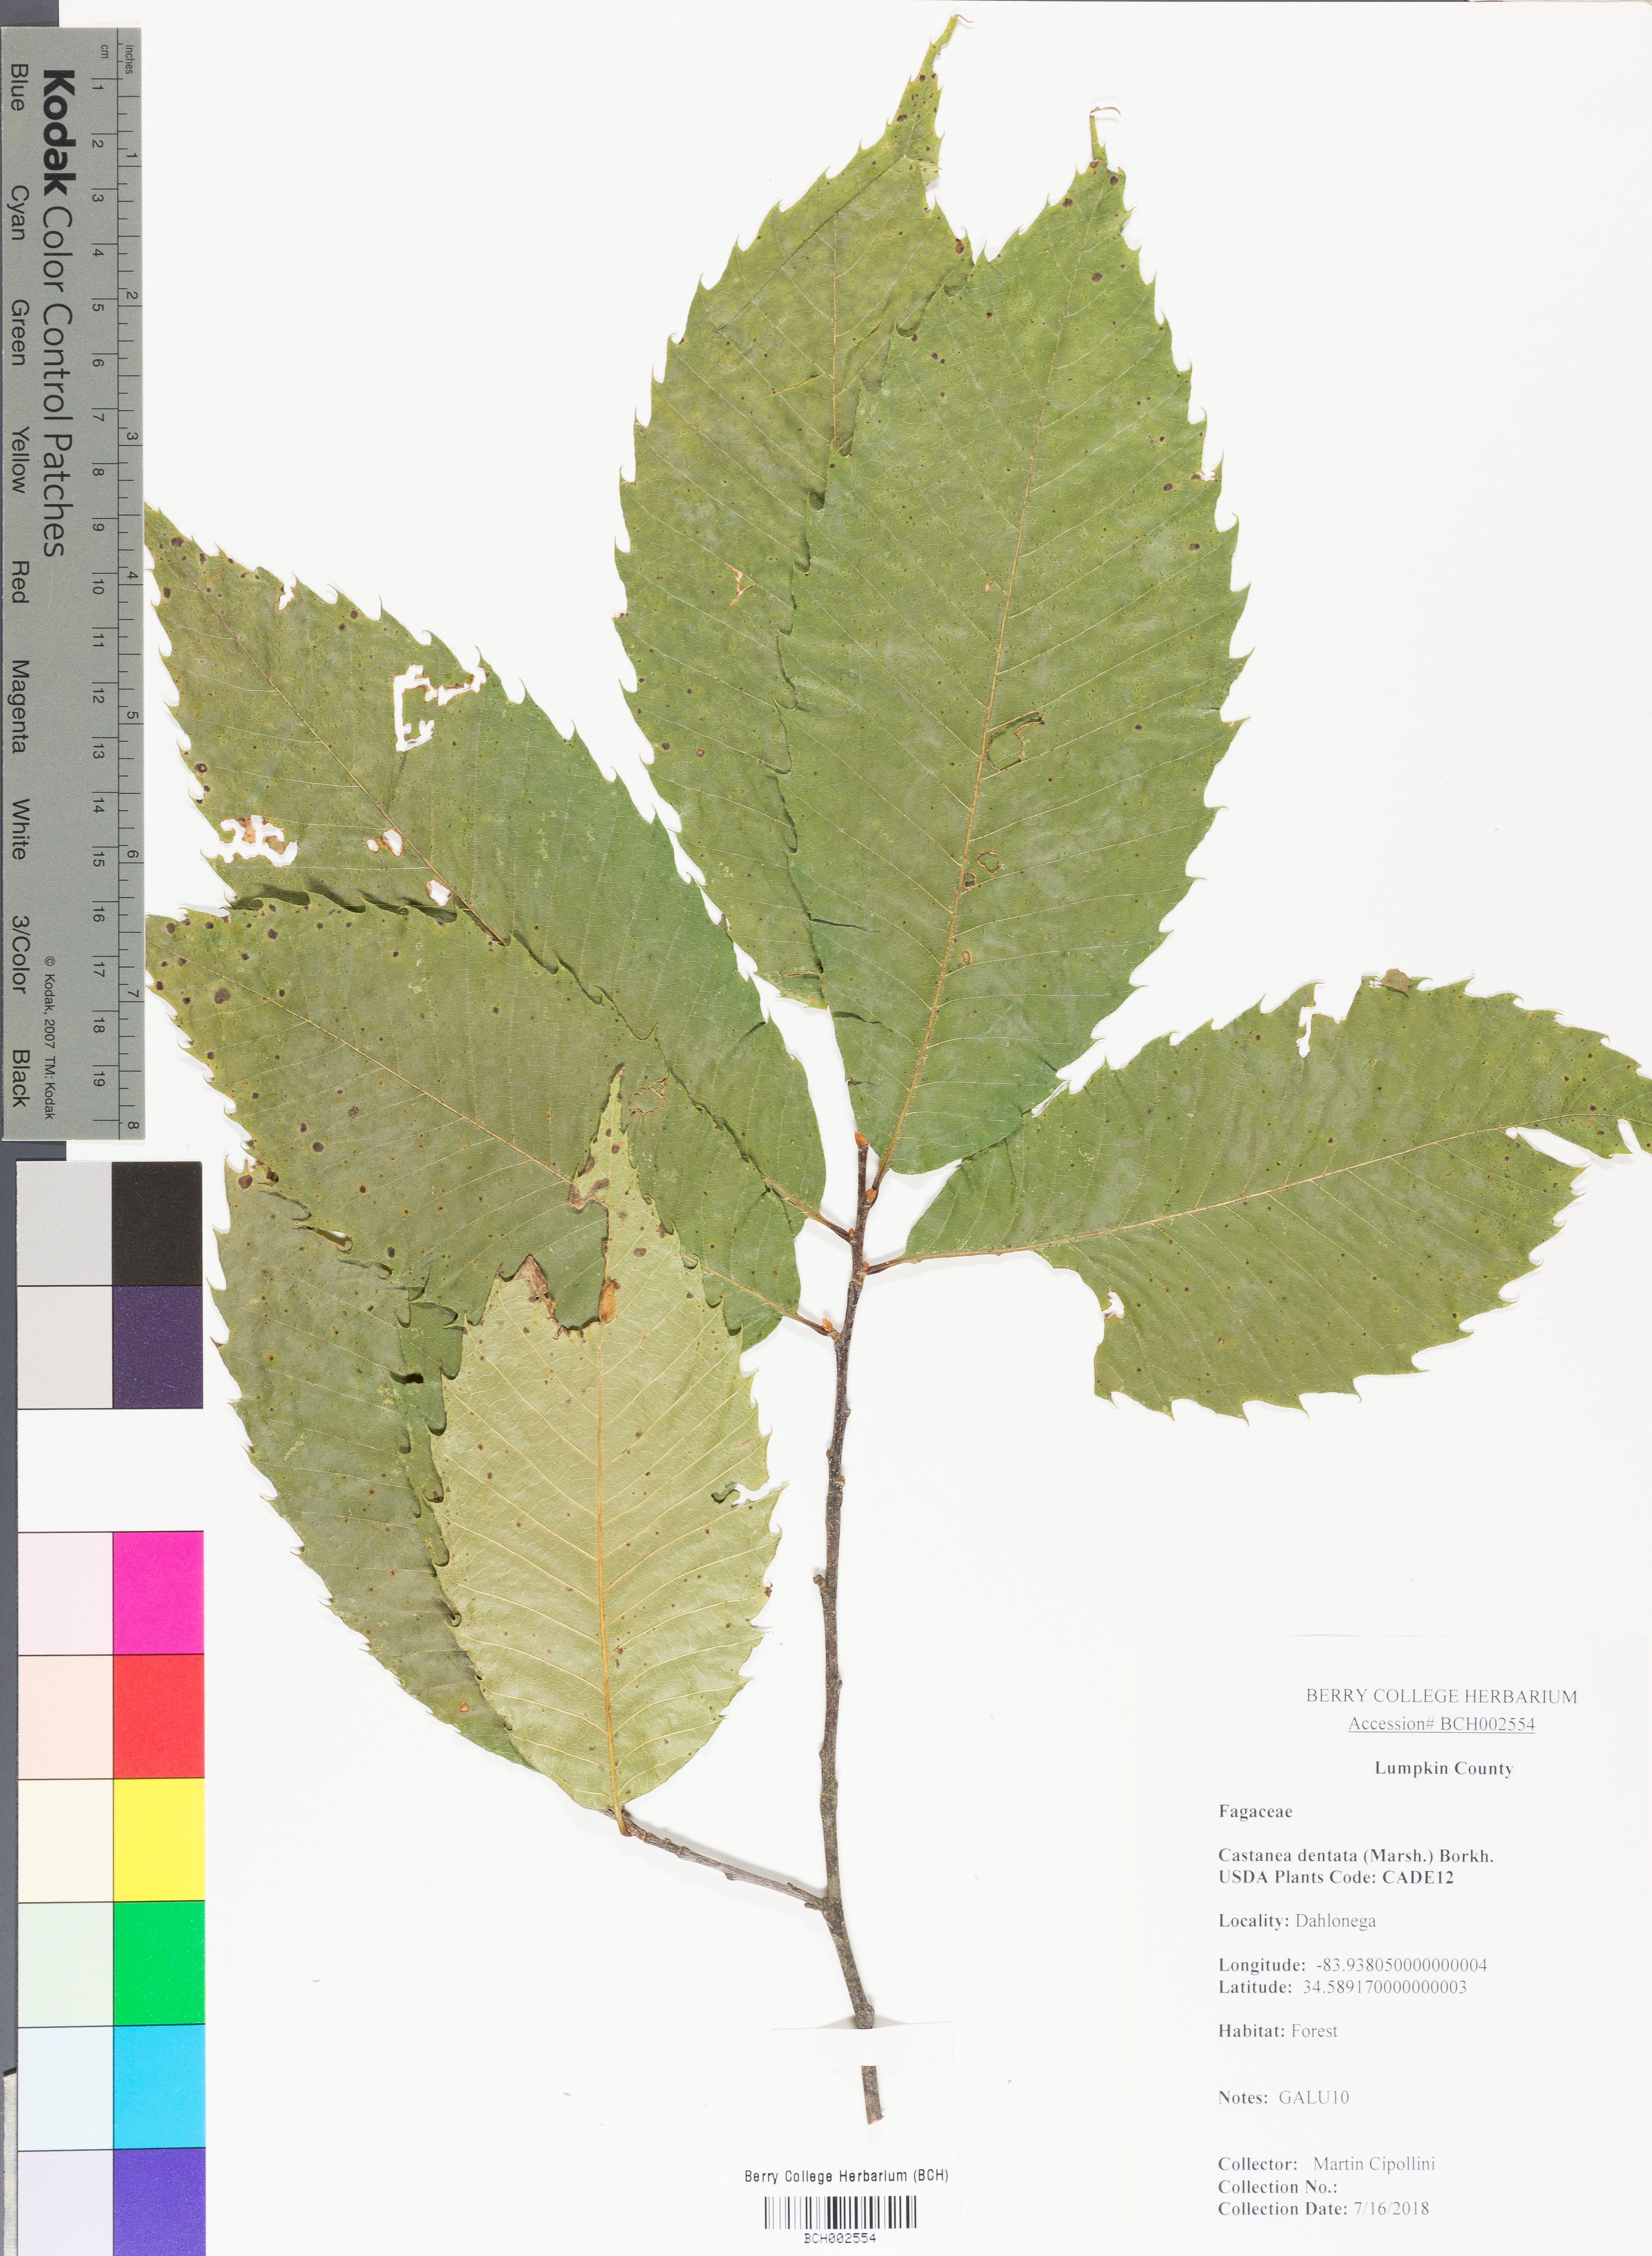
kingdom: Plantae
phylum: Tracheophyta
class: Magnoliopsida
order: Fagales
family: Fagaceae
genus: Castanea
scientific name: Castanea dentata
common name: American chestnut
